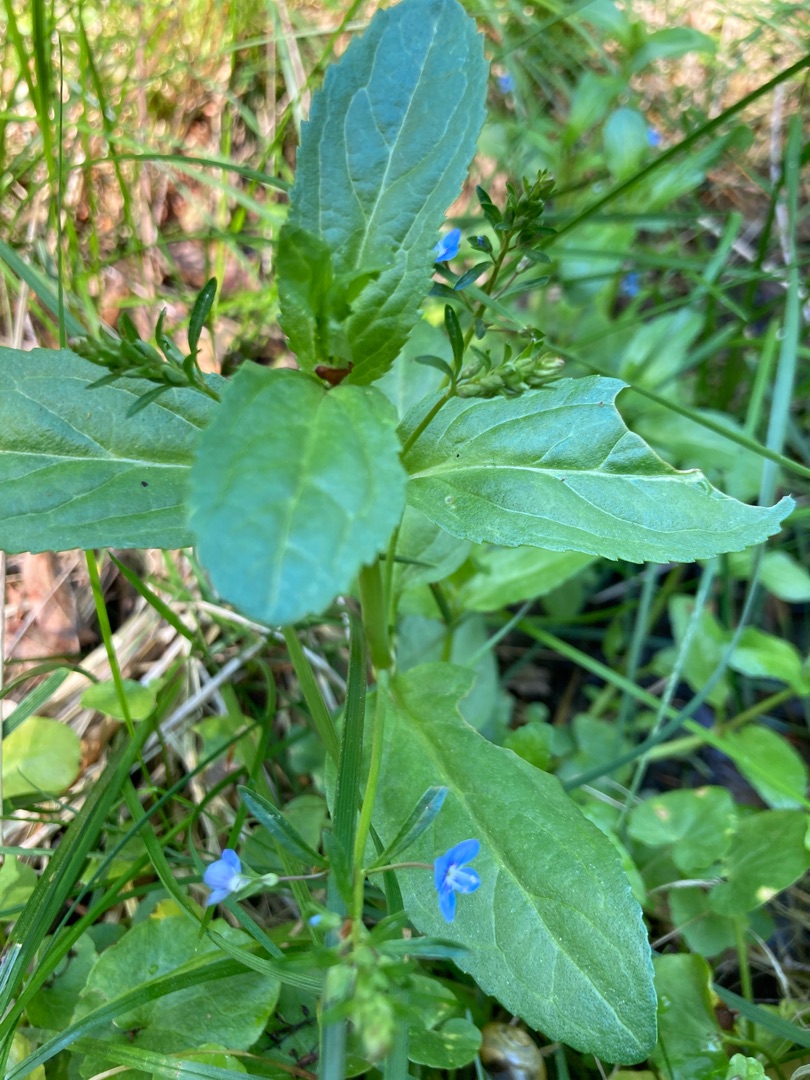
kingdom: Plantae
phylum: Tracheophyta
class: Magnoliopsida
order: Lamiales
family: Plantaginaceae
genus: Veronica
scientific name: Veronica beccabunga
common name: Tykbladet ærenpris
